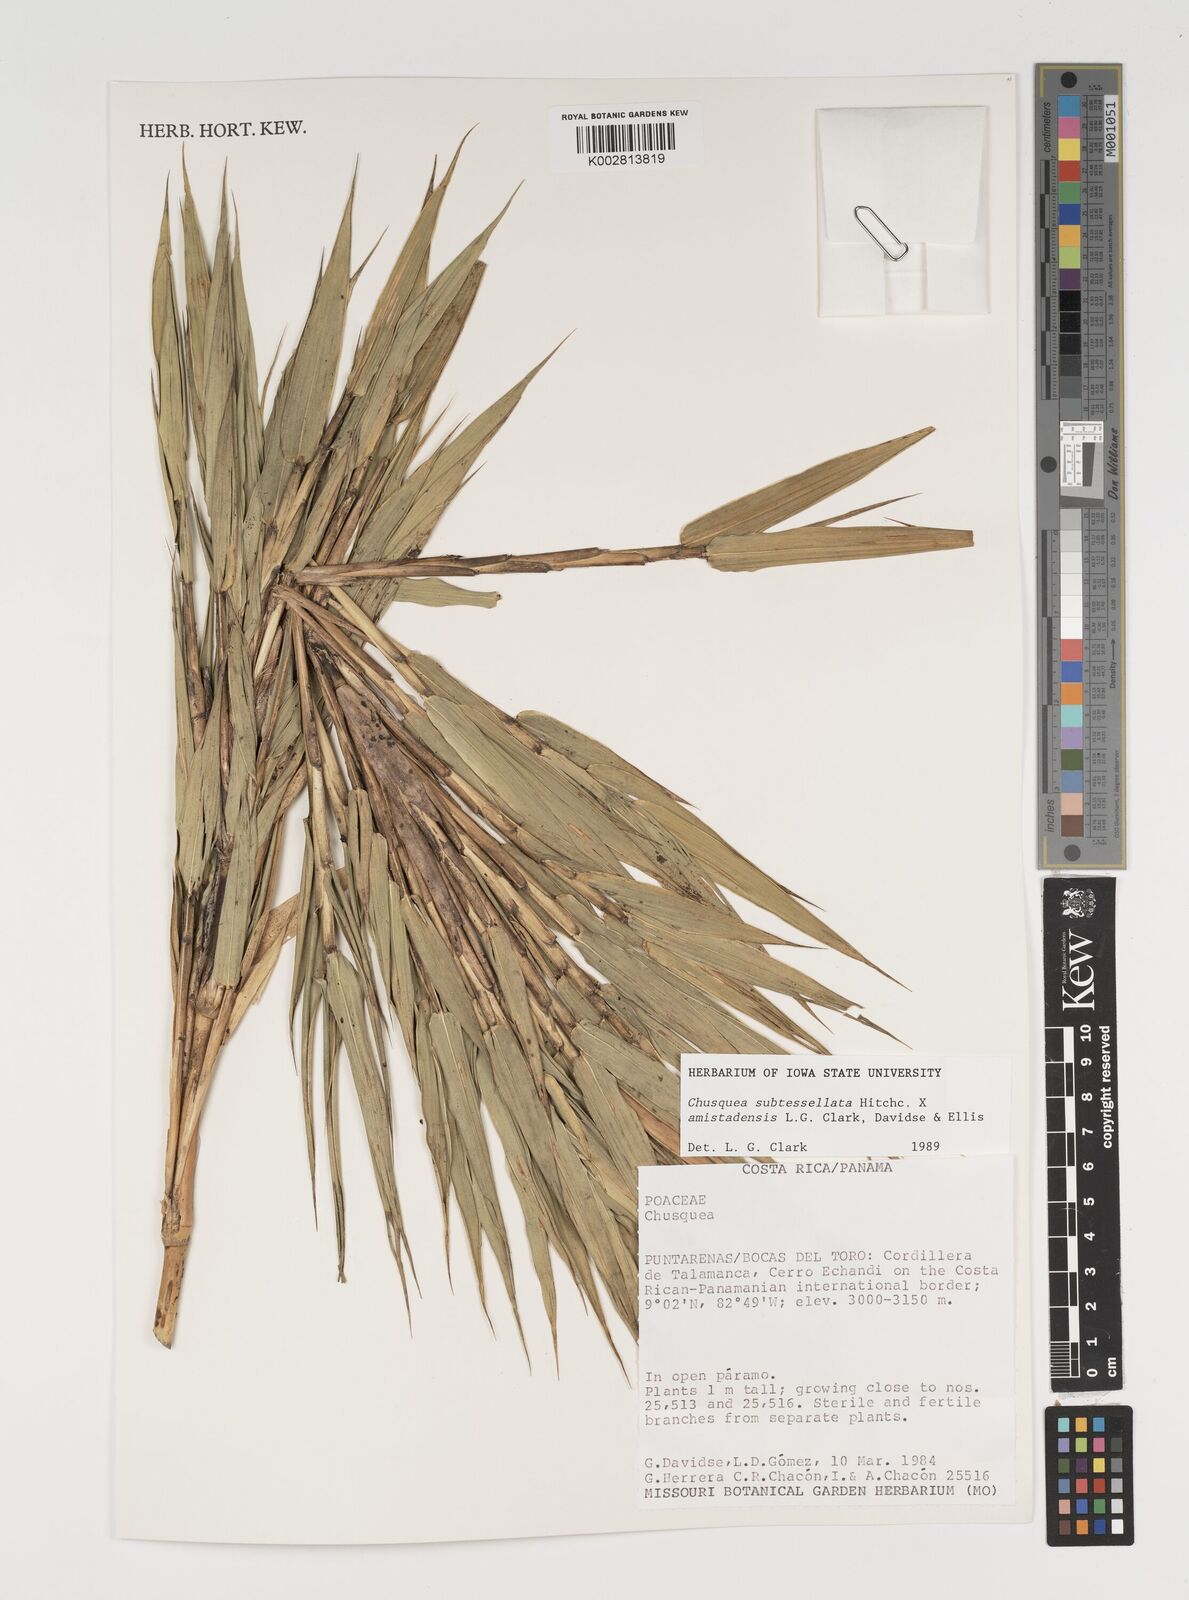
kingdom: Plantae
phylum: Tracheophyta
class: Liliopsida
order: Poales
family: Poaceae
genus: Chusquea
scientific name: Chusquea subtessellata
